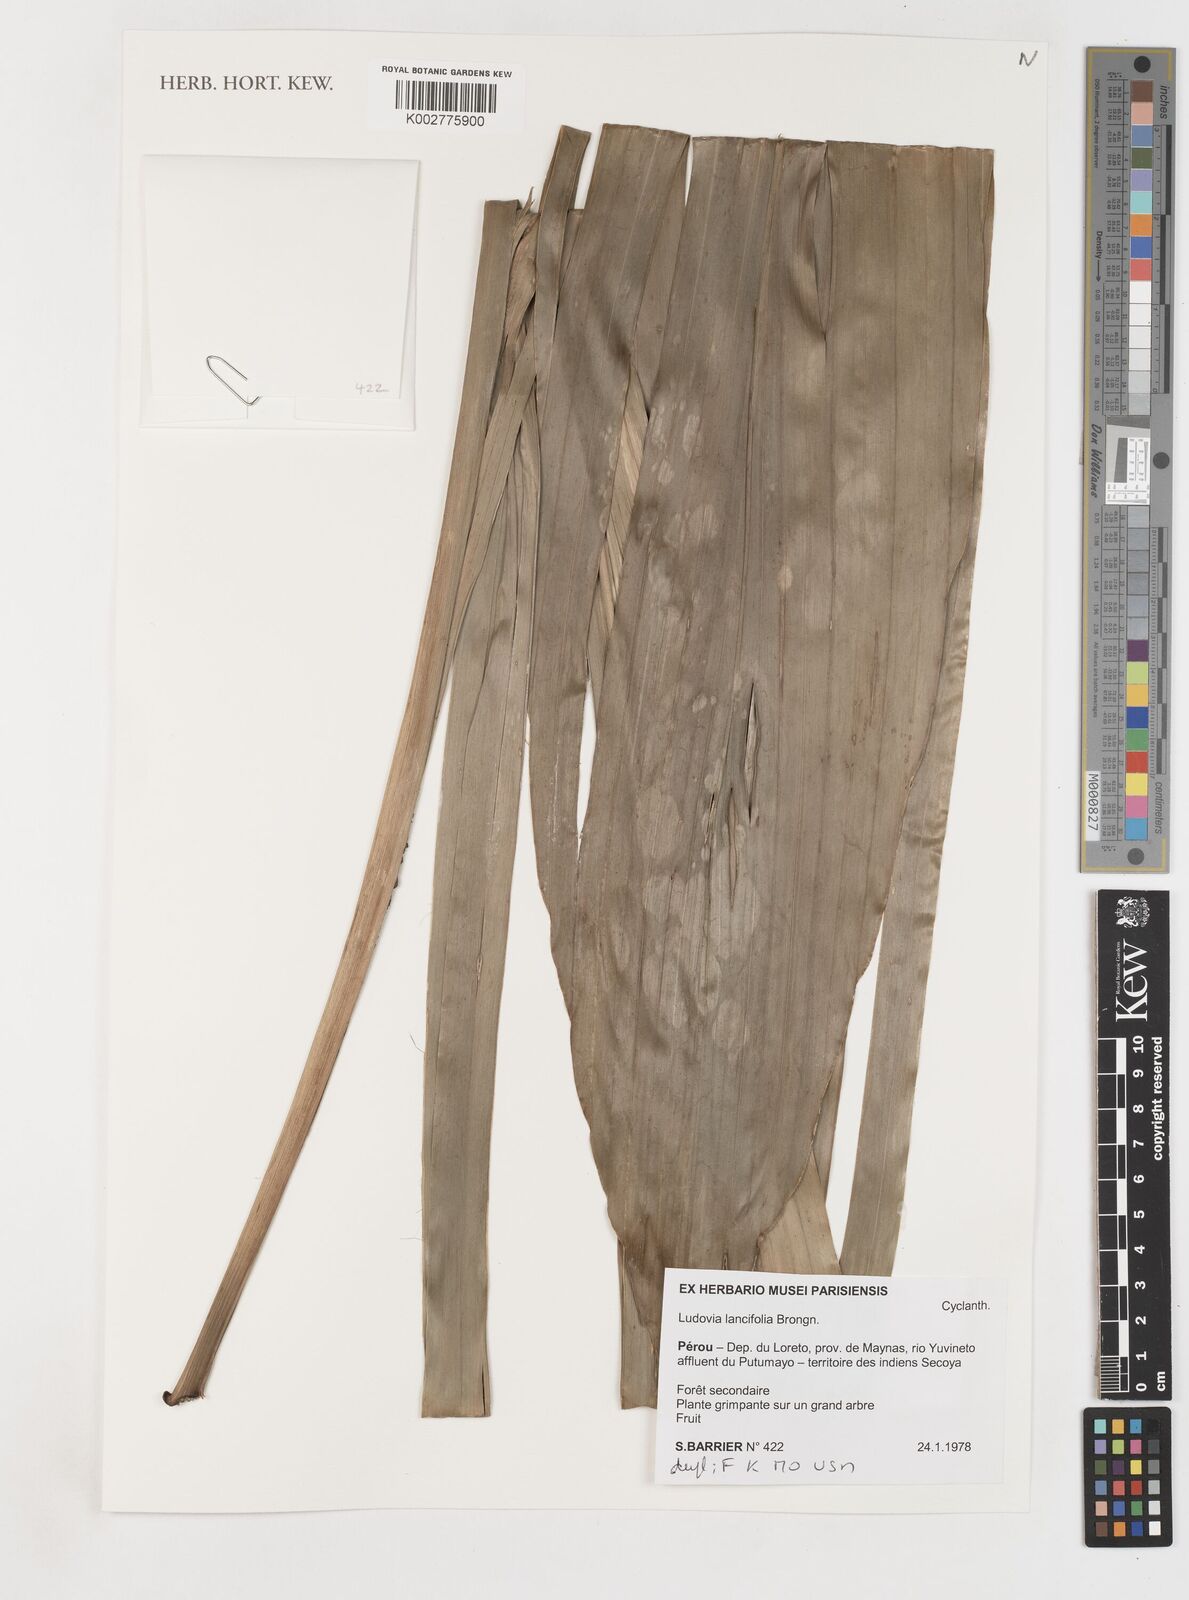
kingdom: Plantae
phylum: Tracheophyta
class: Liliopsida
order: Pandanales
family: Cyclanthaceae
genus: Ludovia
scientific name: Ludovia lancifolia
